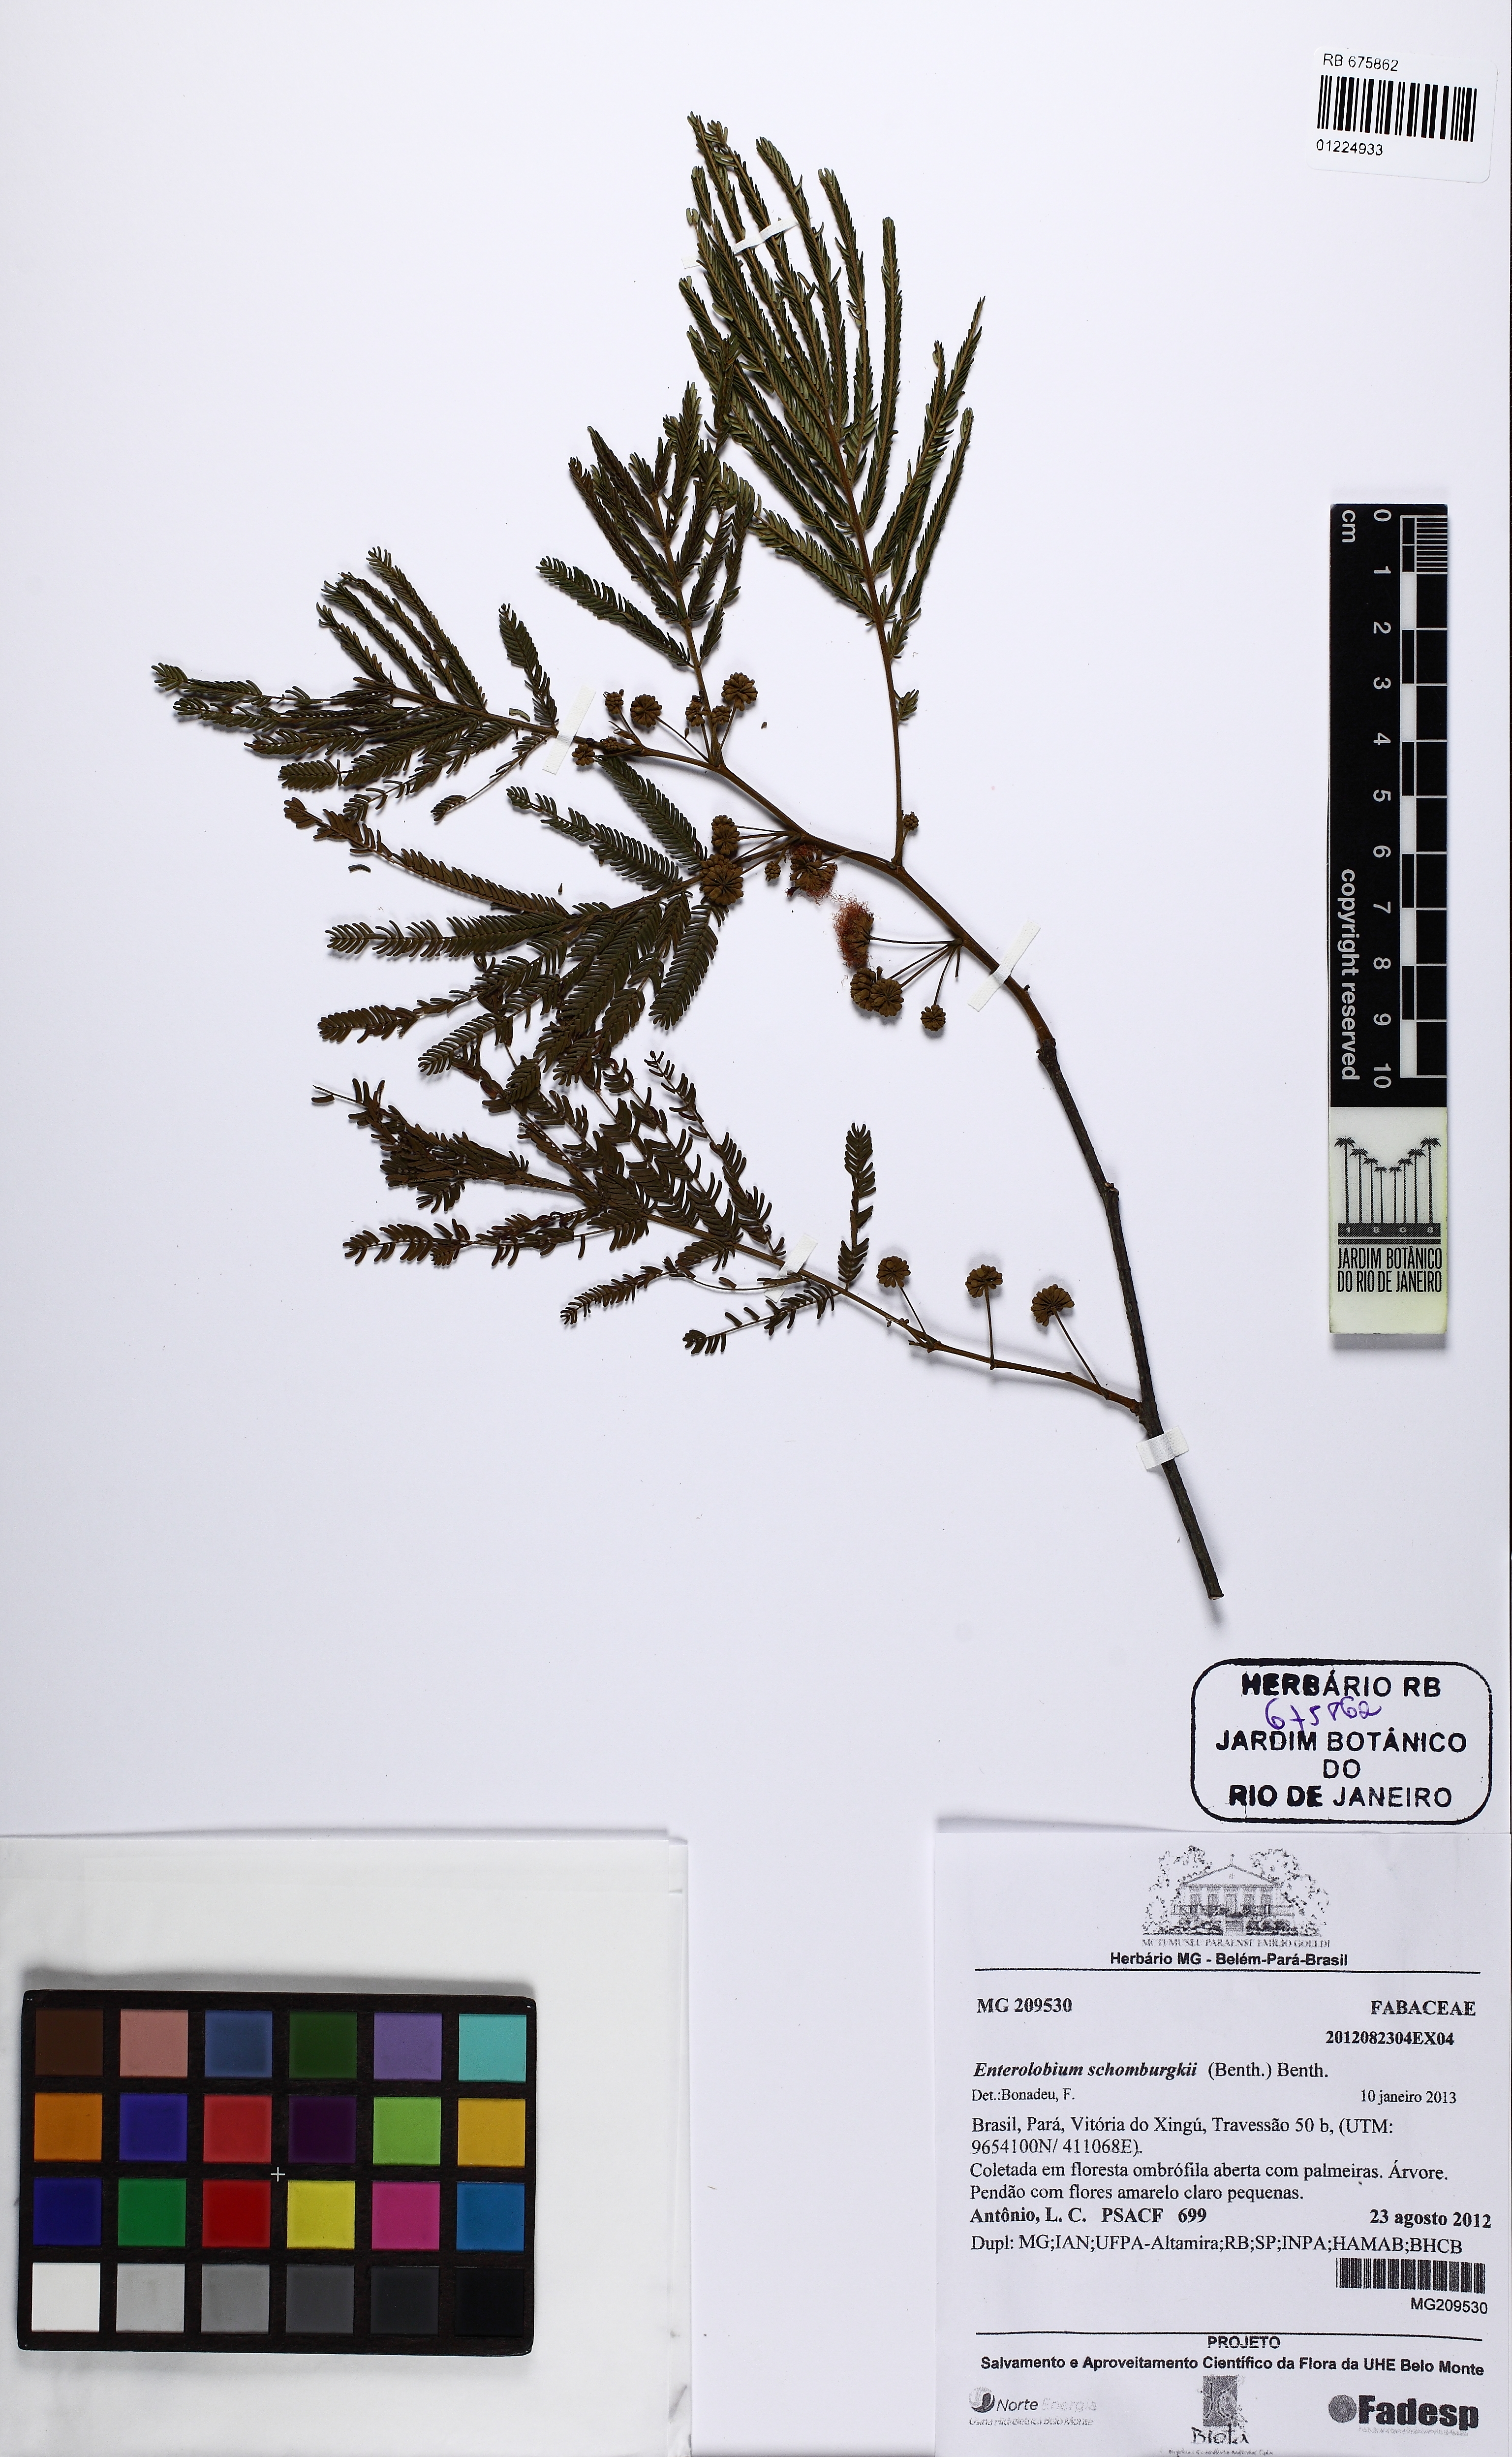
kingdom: Plantae
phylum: Tracheophyta
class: Magnoliopsida
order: Fabales
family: Fabaceae
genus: Enterolobium
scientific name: Enterolobium schomburgkii
